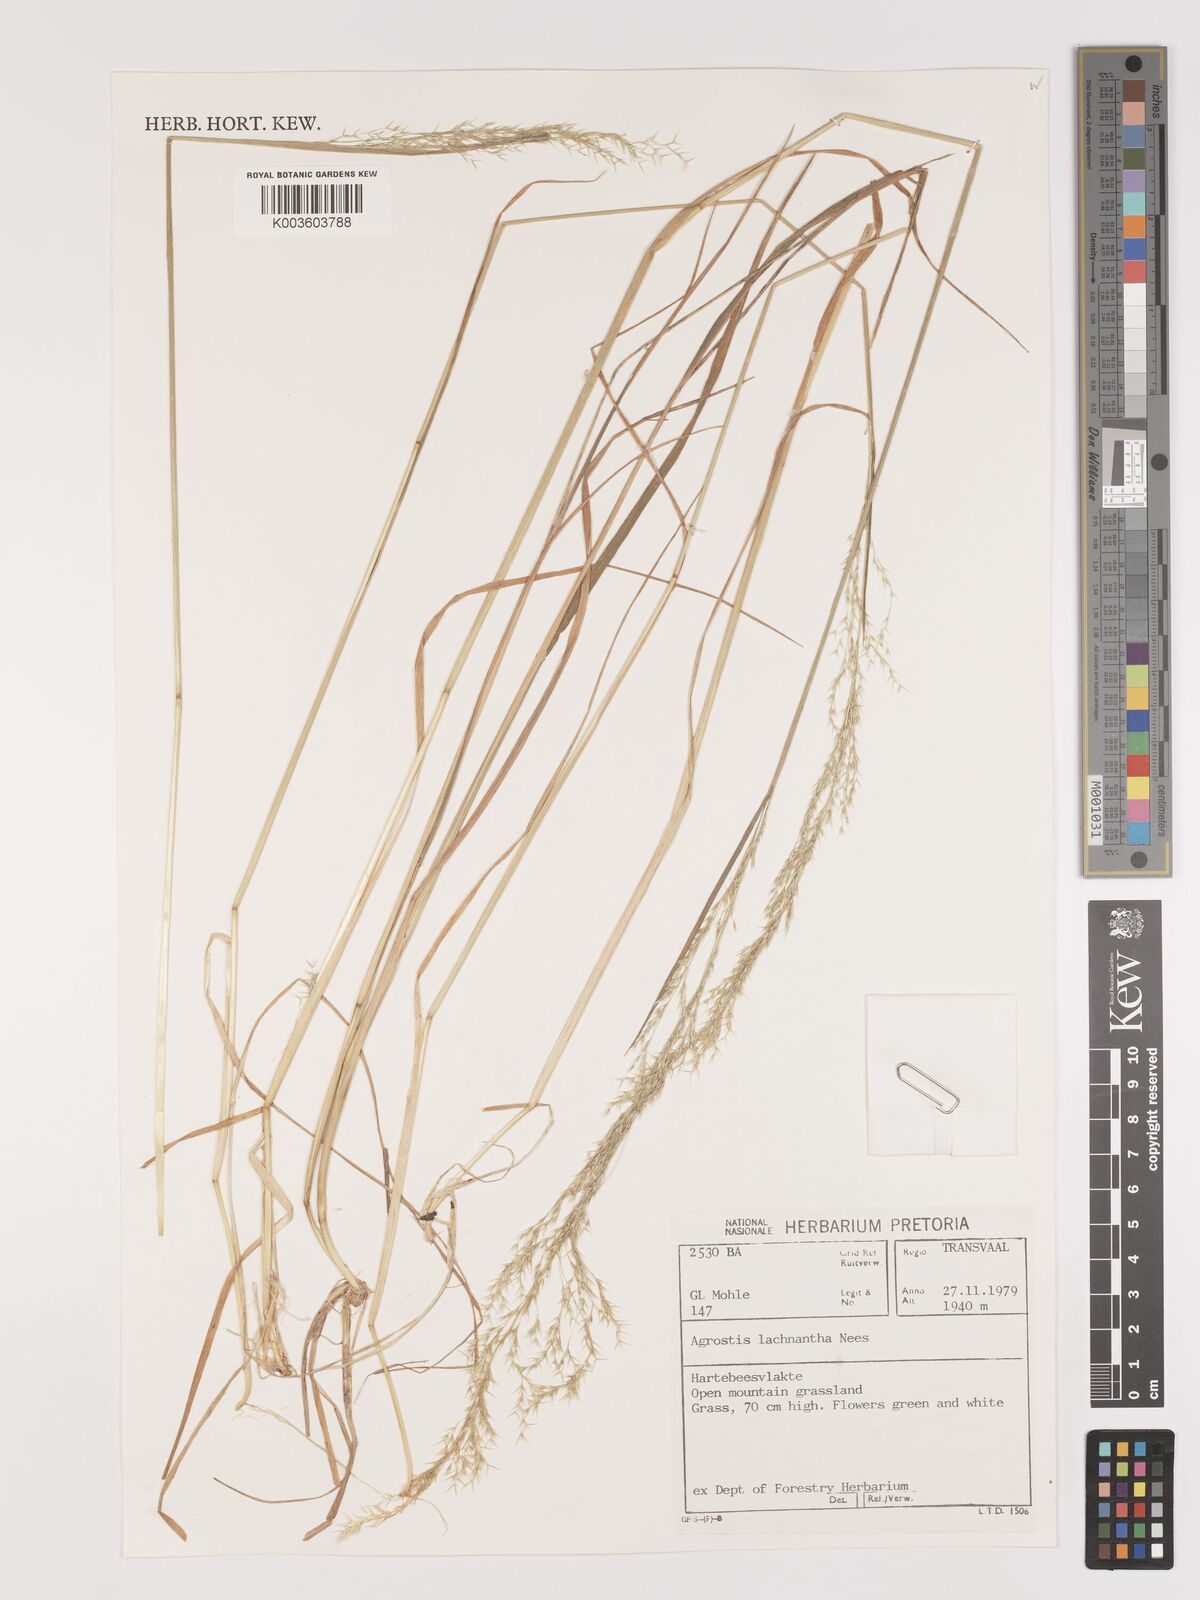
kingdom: Plantae
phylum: Tracheophyta
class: Liliopsida
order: Poales
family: Poaceae
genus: Lachnagrostis
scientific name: Lachnagrostis lachnantha
